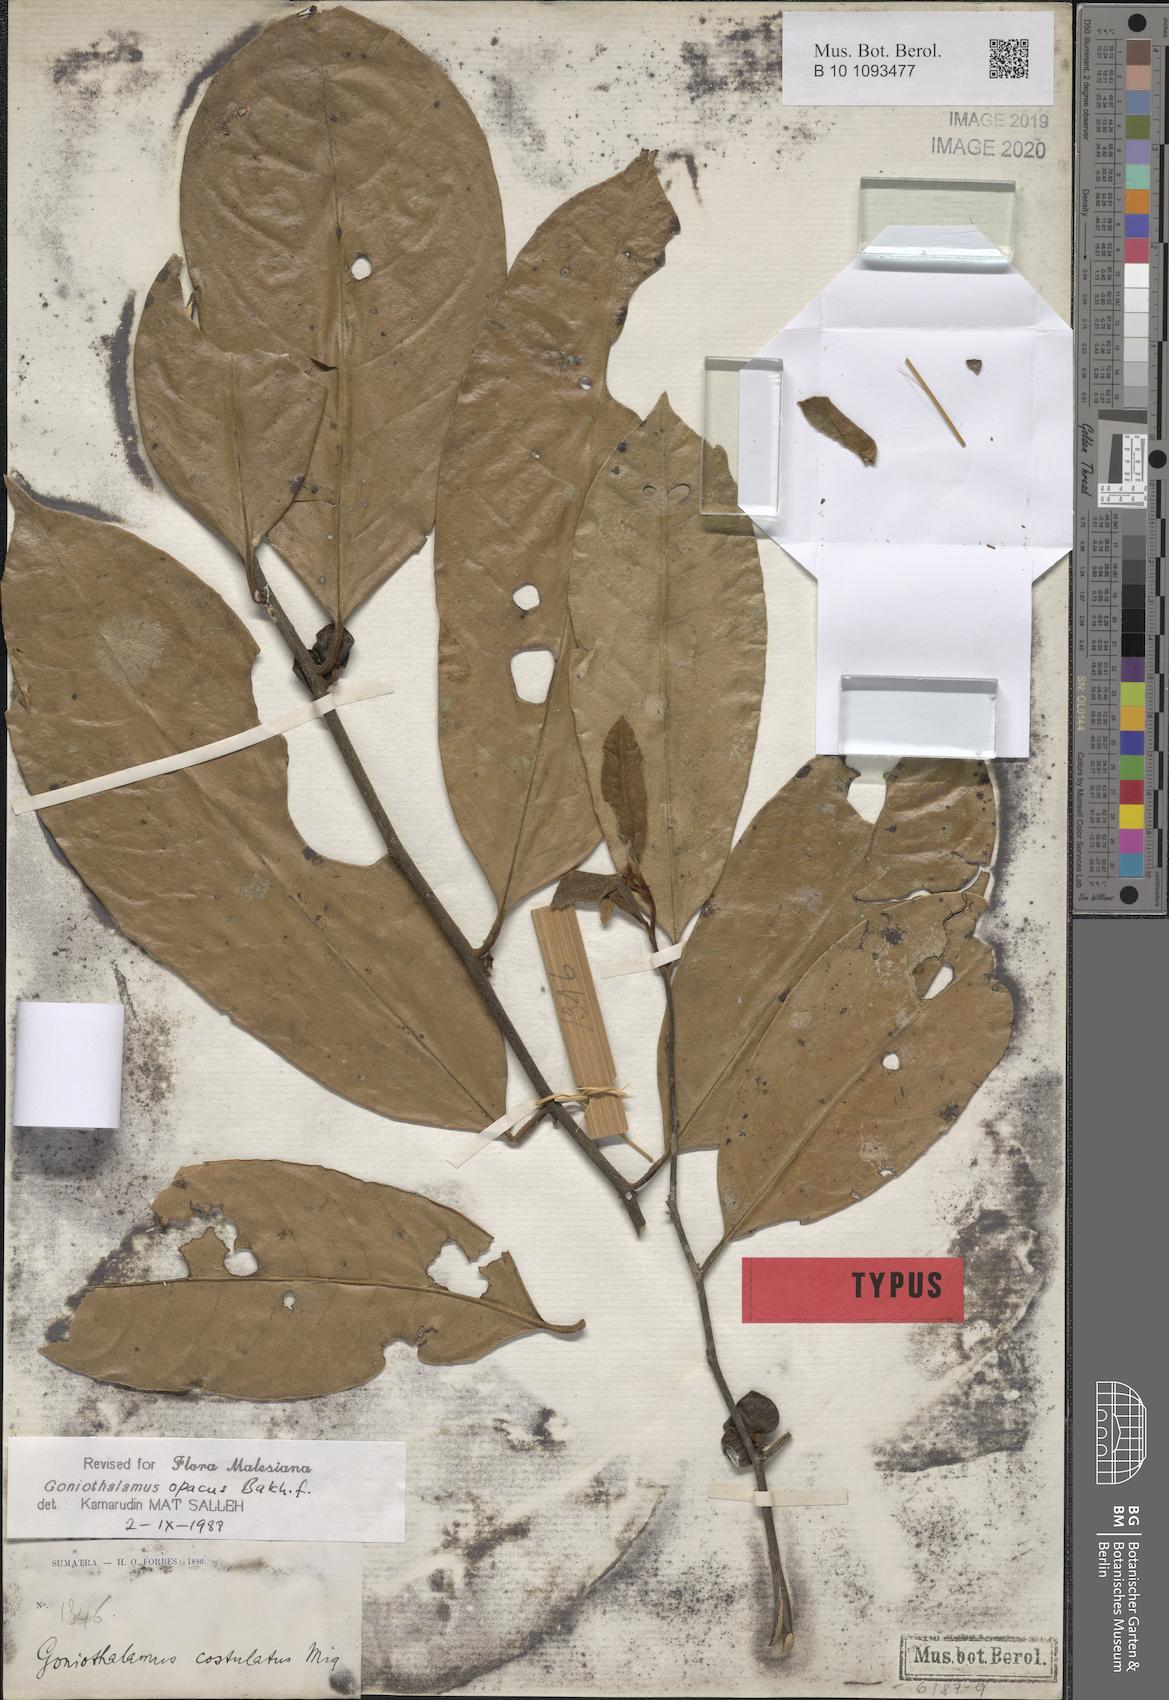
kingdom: Plantae
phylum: Tracheophyta
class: Magnoliopsida
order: Magnoliales
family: Annonaceae
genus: Goniothalamus
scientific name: Goniothalamus costulatus
